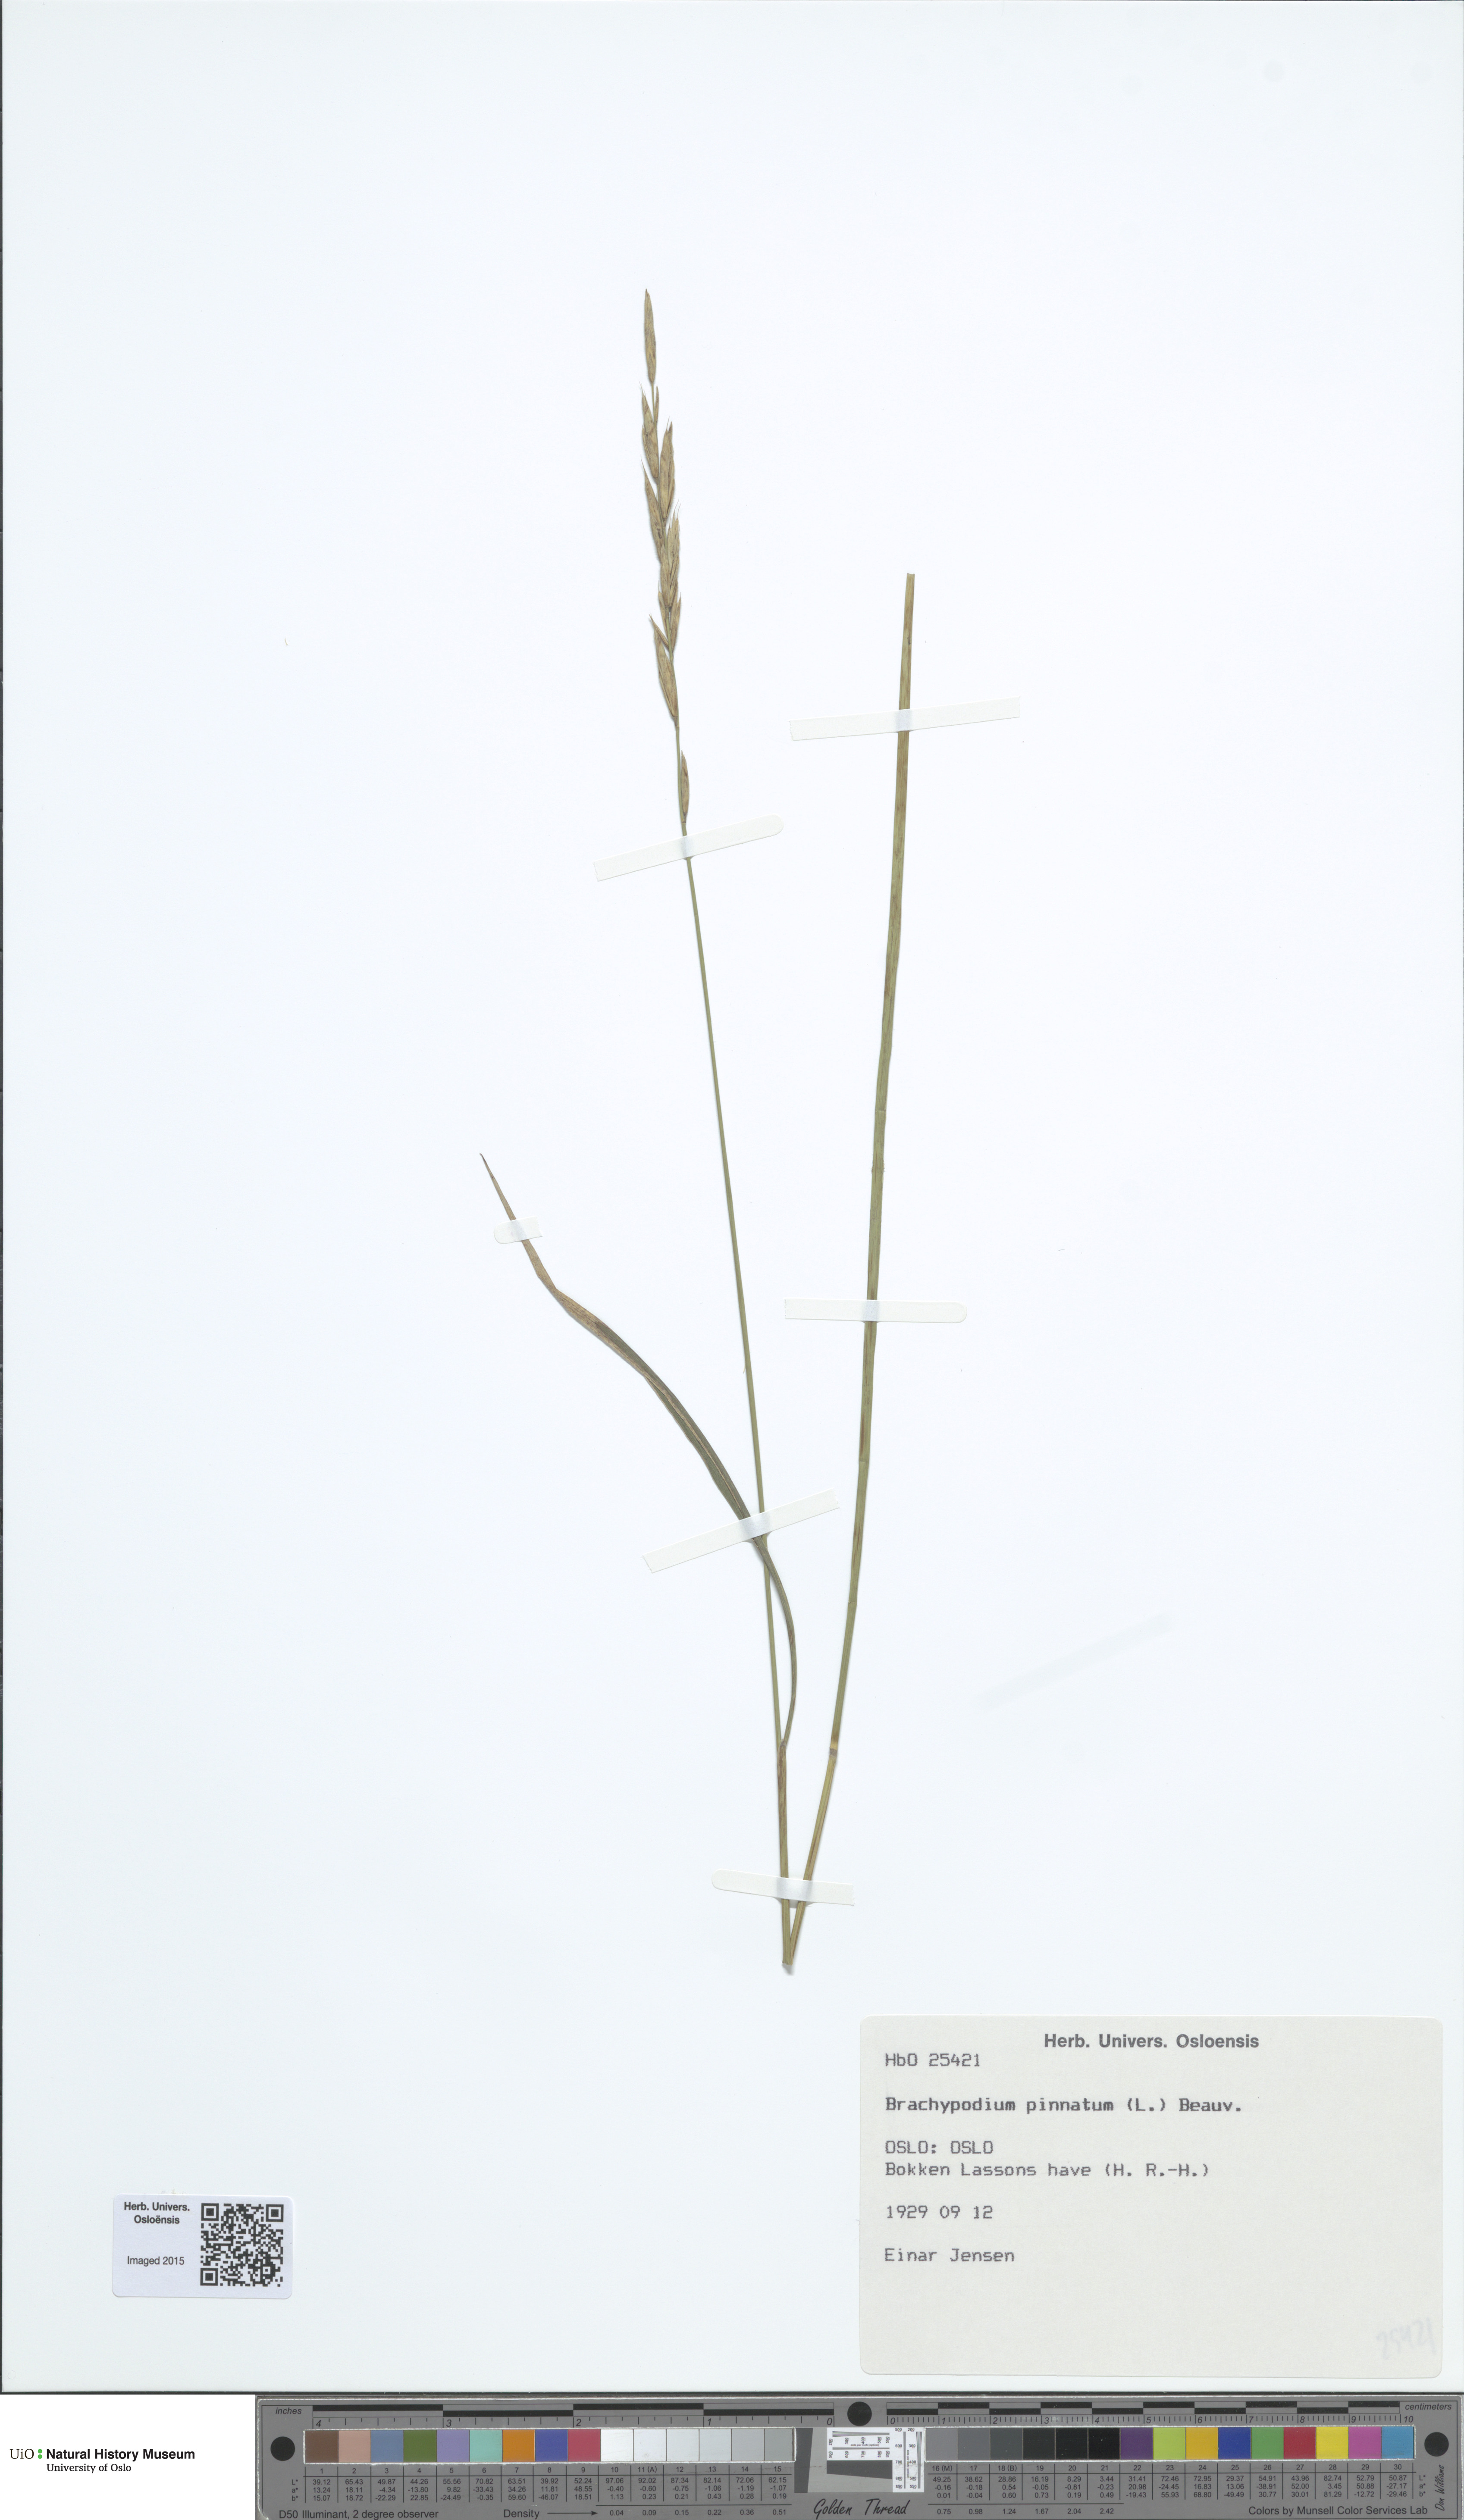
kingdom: Plantae
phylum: Tracheophyta
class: Liliopsida
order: Poales
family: Poaceae
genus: Brachypodium
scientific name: Brachypodium pinnatum
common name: Tor grass
